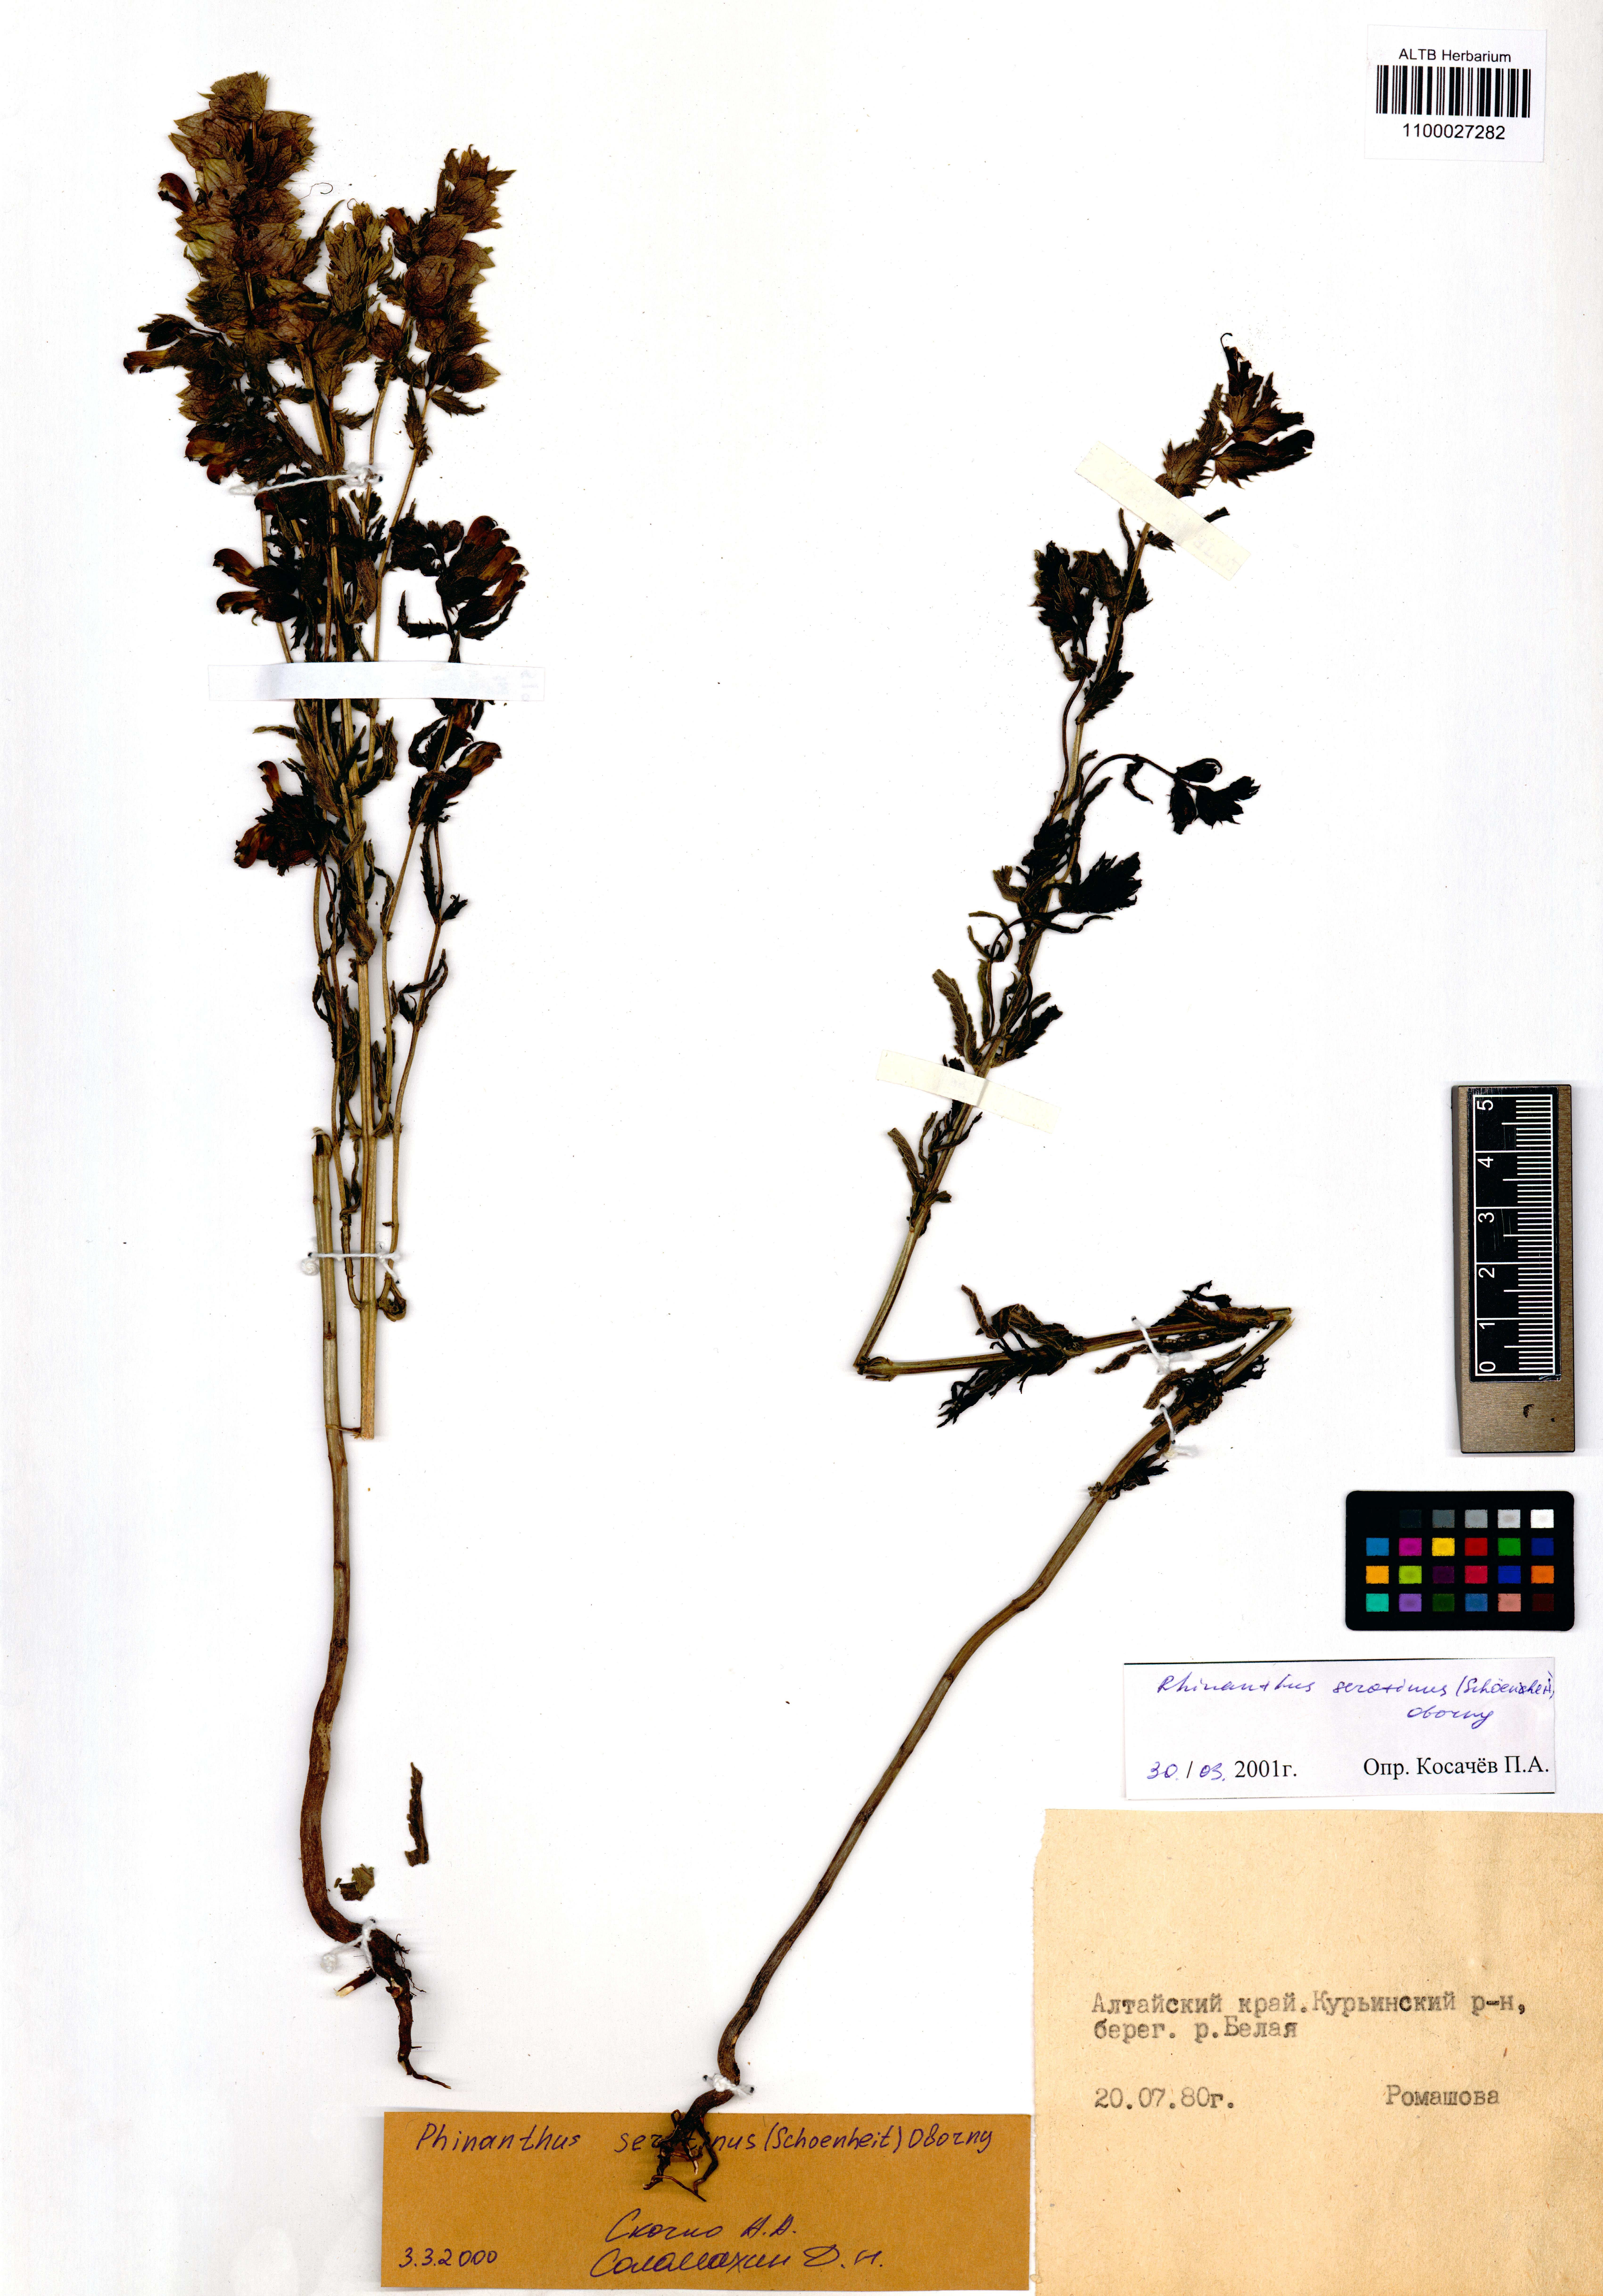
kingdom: Plantae
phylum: Tracheophyta
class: Magnoliopsida
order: Lamiales
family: Orobanchaceae
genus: Rhinanthus
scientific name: Rhinanthus
